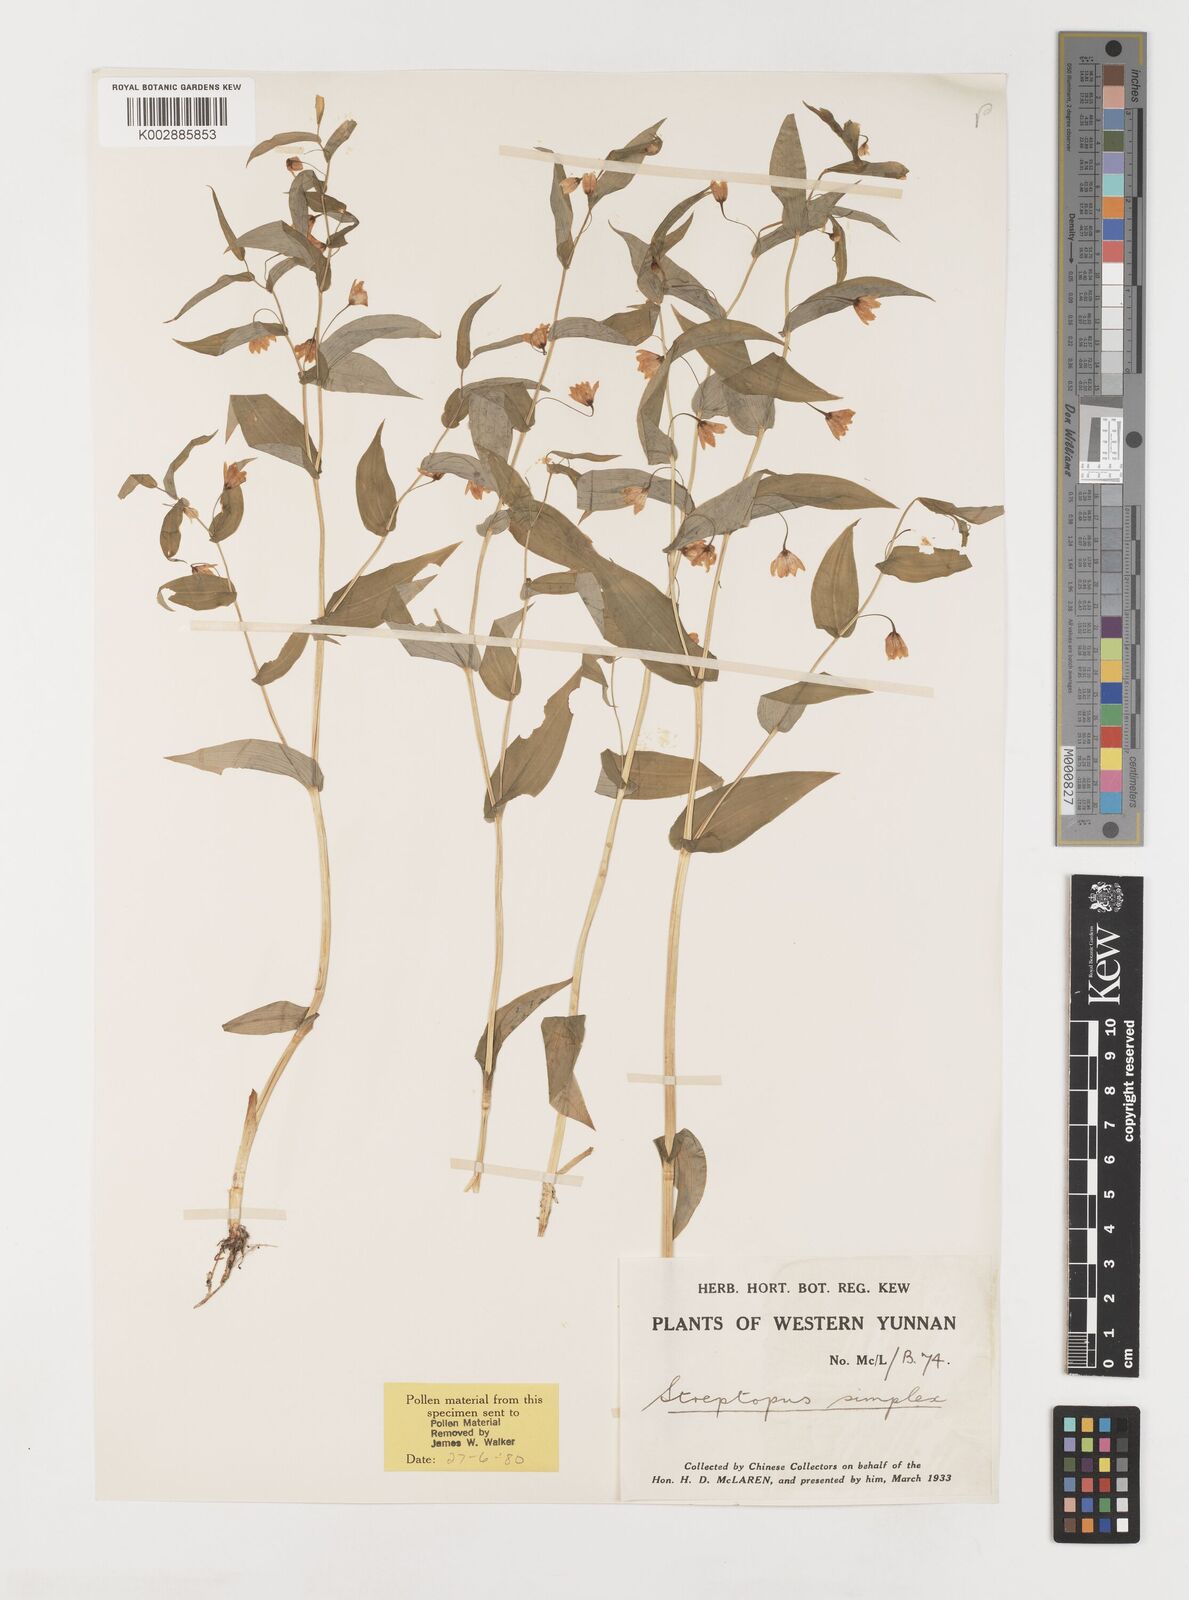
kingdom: Plantae
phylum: Tracheophyta
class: Liliopsida
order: Liliales
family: Liliaceae
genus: Streptopus
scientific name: Streptopus simplex
